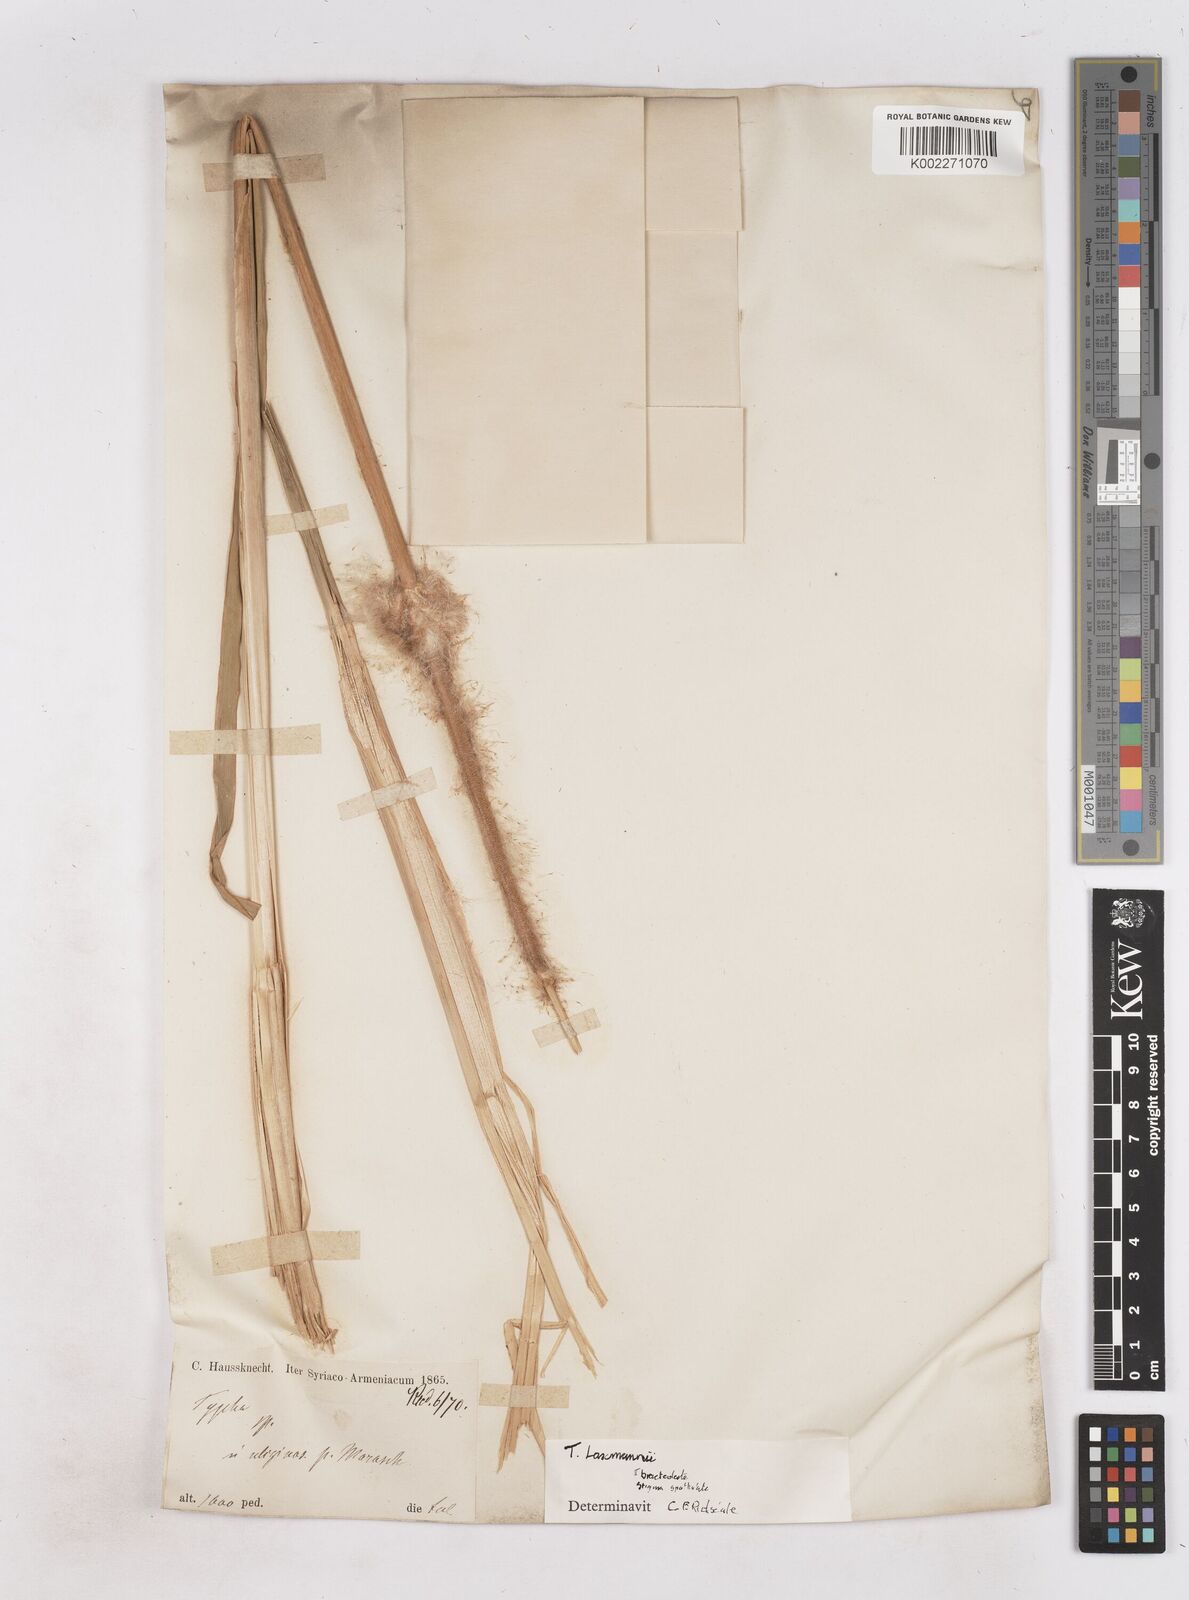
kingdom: Plantae
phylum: Tracheophyta
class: Liliopsida
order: Poales
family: Typhaceae
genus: Typha
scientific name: Typha laxmannii
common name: Laxman’s bulrush
